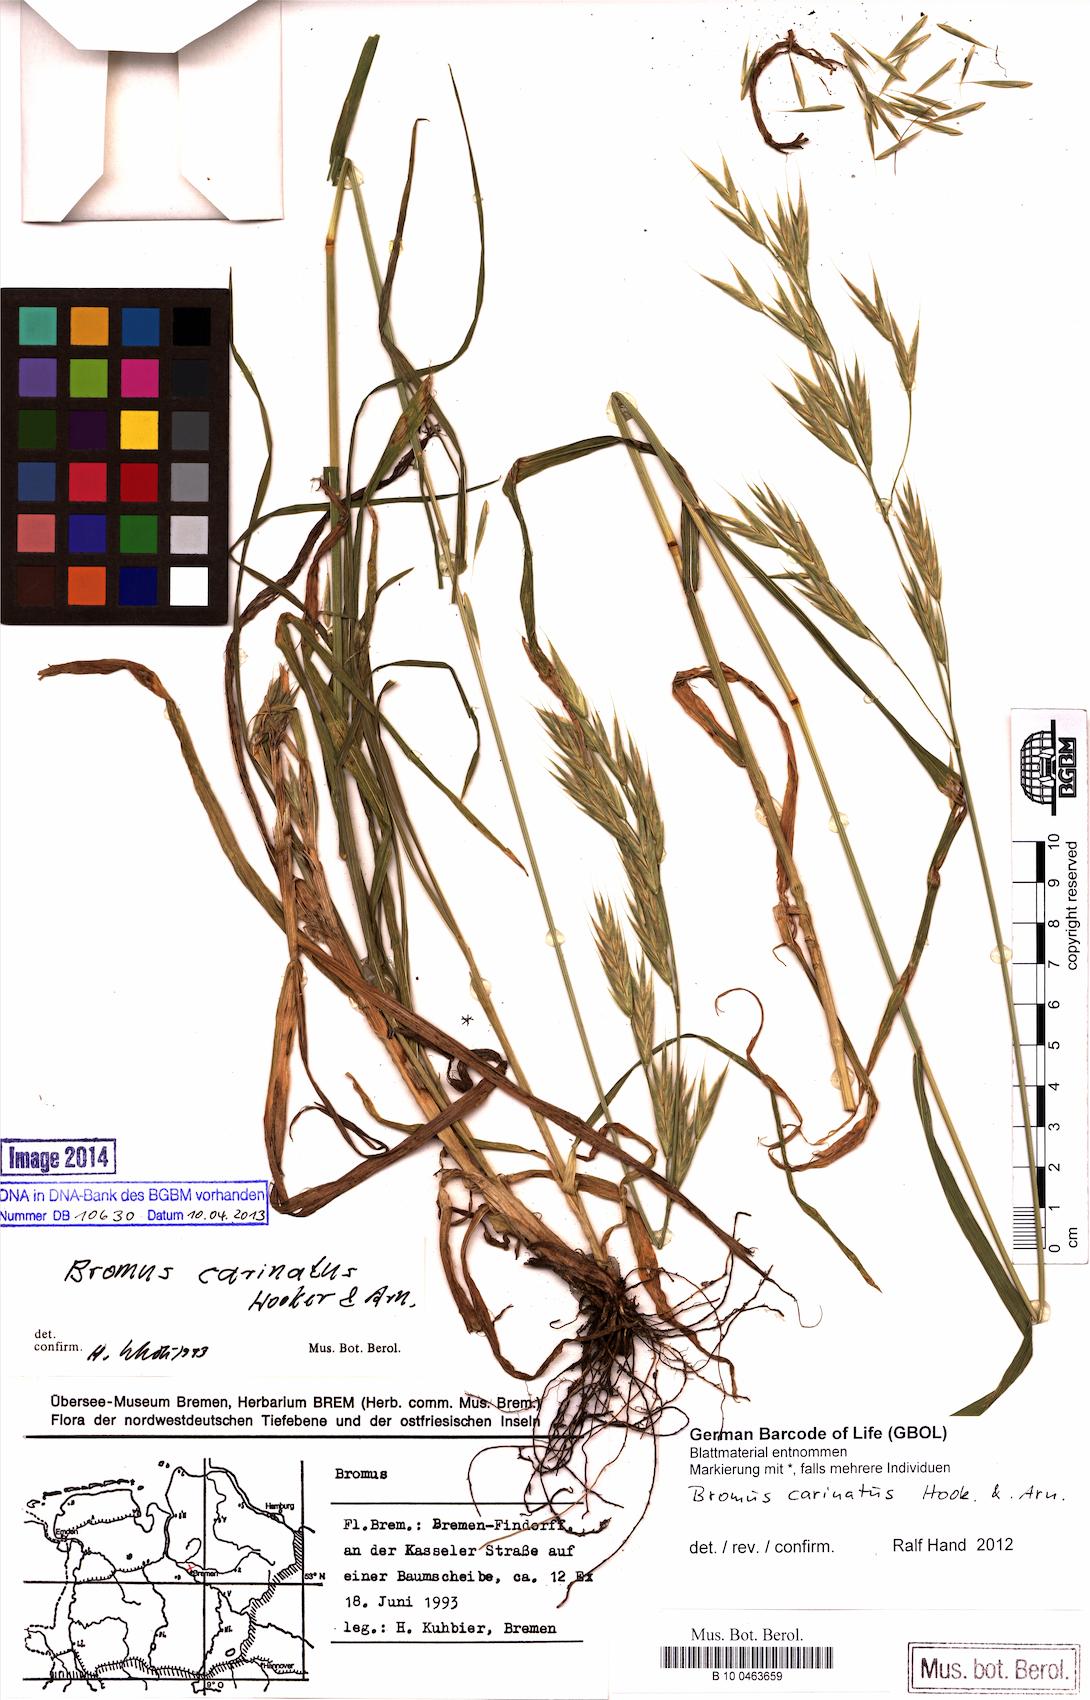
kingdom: Plantae
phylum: Tracheophyta
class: Liliopsida
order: Poales
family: Poaceae
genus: Bromus
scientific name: Bromus carinatus
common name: Mountain brome
